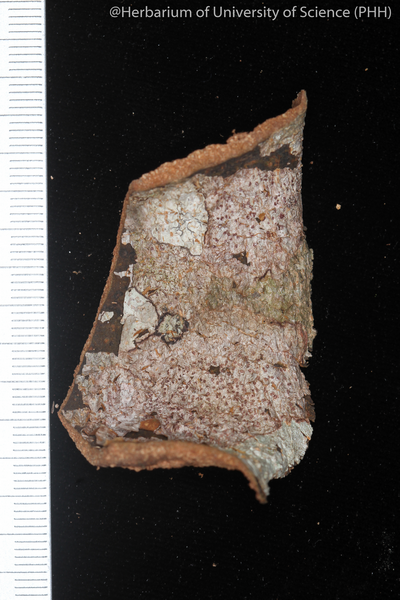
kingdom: Fungi
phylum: Ascomycota
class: Arthoniomycetes
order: Arthoniales
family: Arthoniaceae
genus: Arthonia
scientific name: Arthonia
